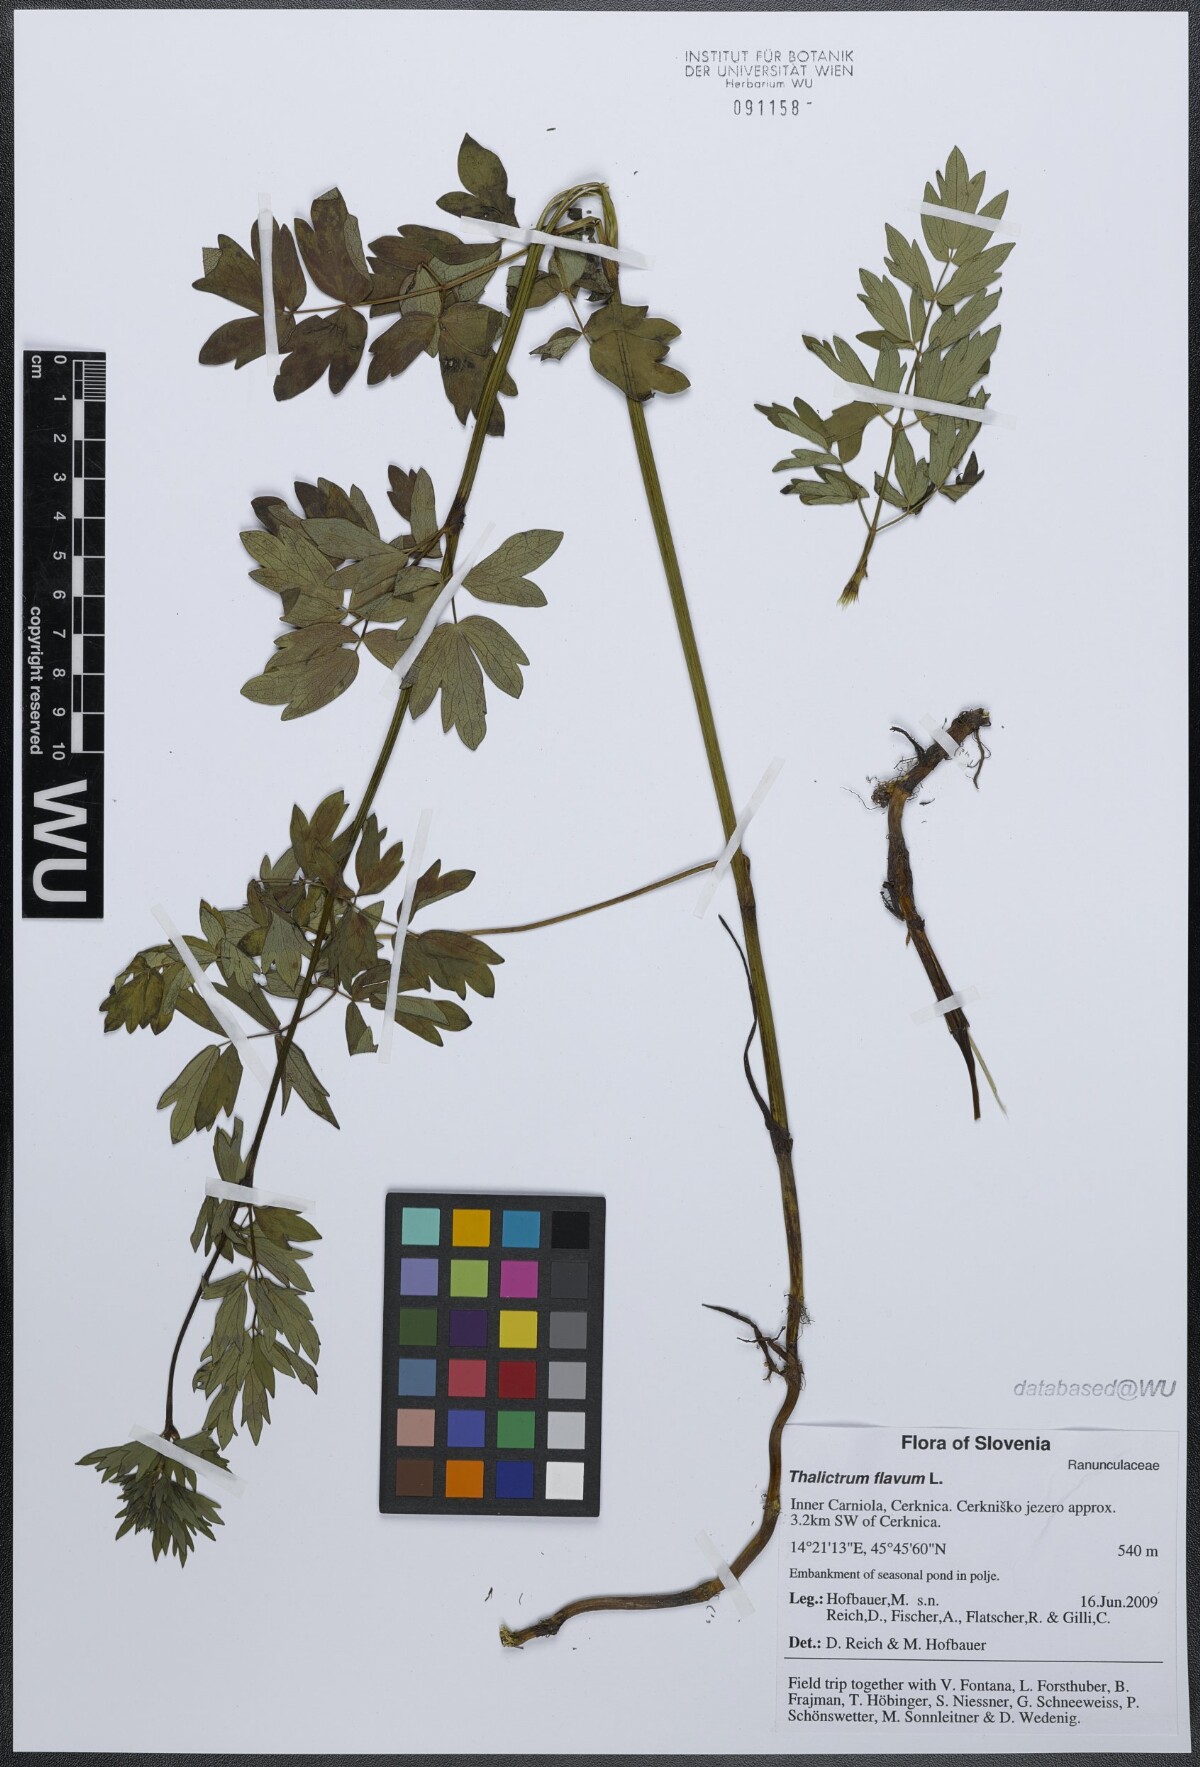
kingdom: Plantae
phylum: Tracheophyta
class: Magnoliopsida
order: Ranunculales
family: Ranunculaceae
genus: Thalictrum
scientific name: Thalictrum flavum
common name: Common meadow-rue
